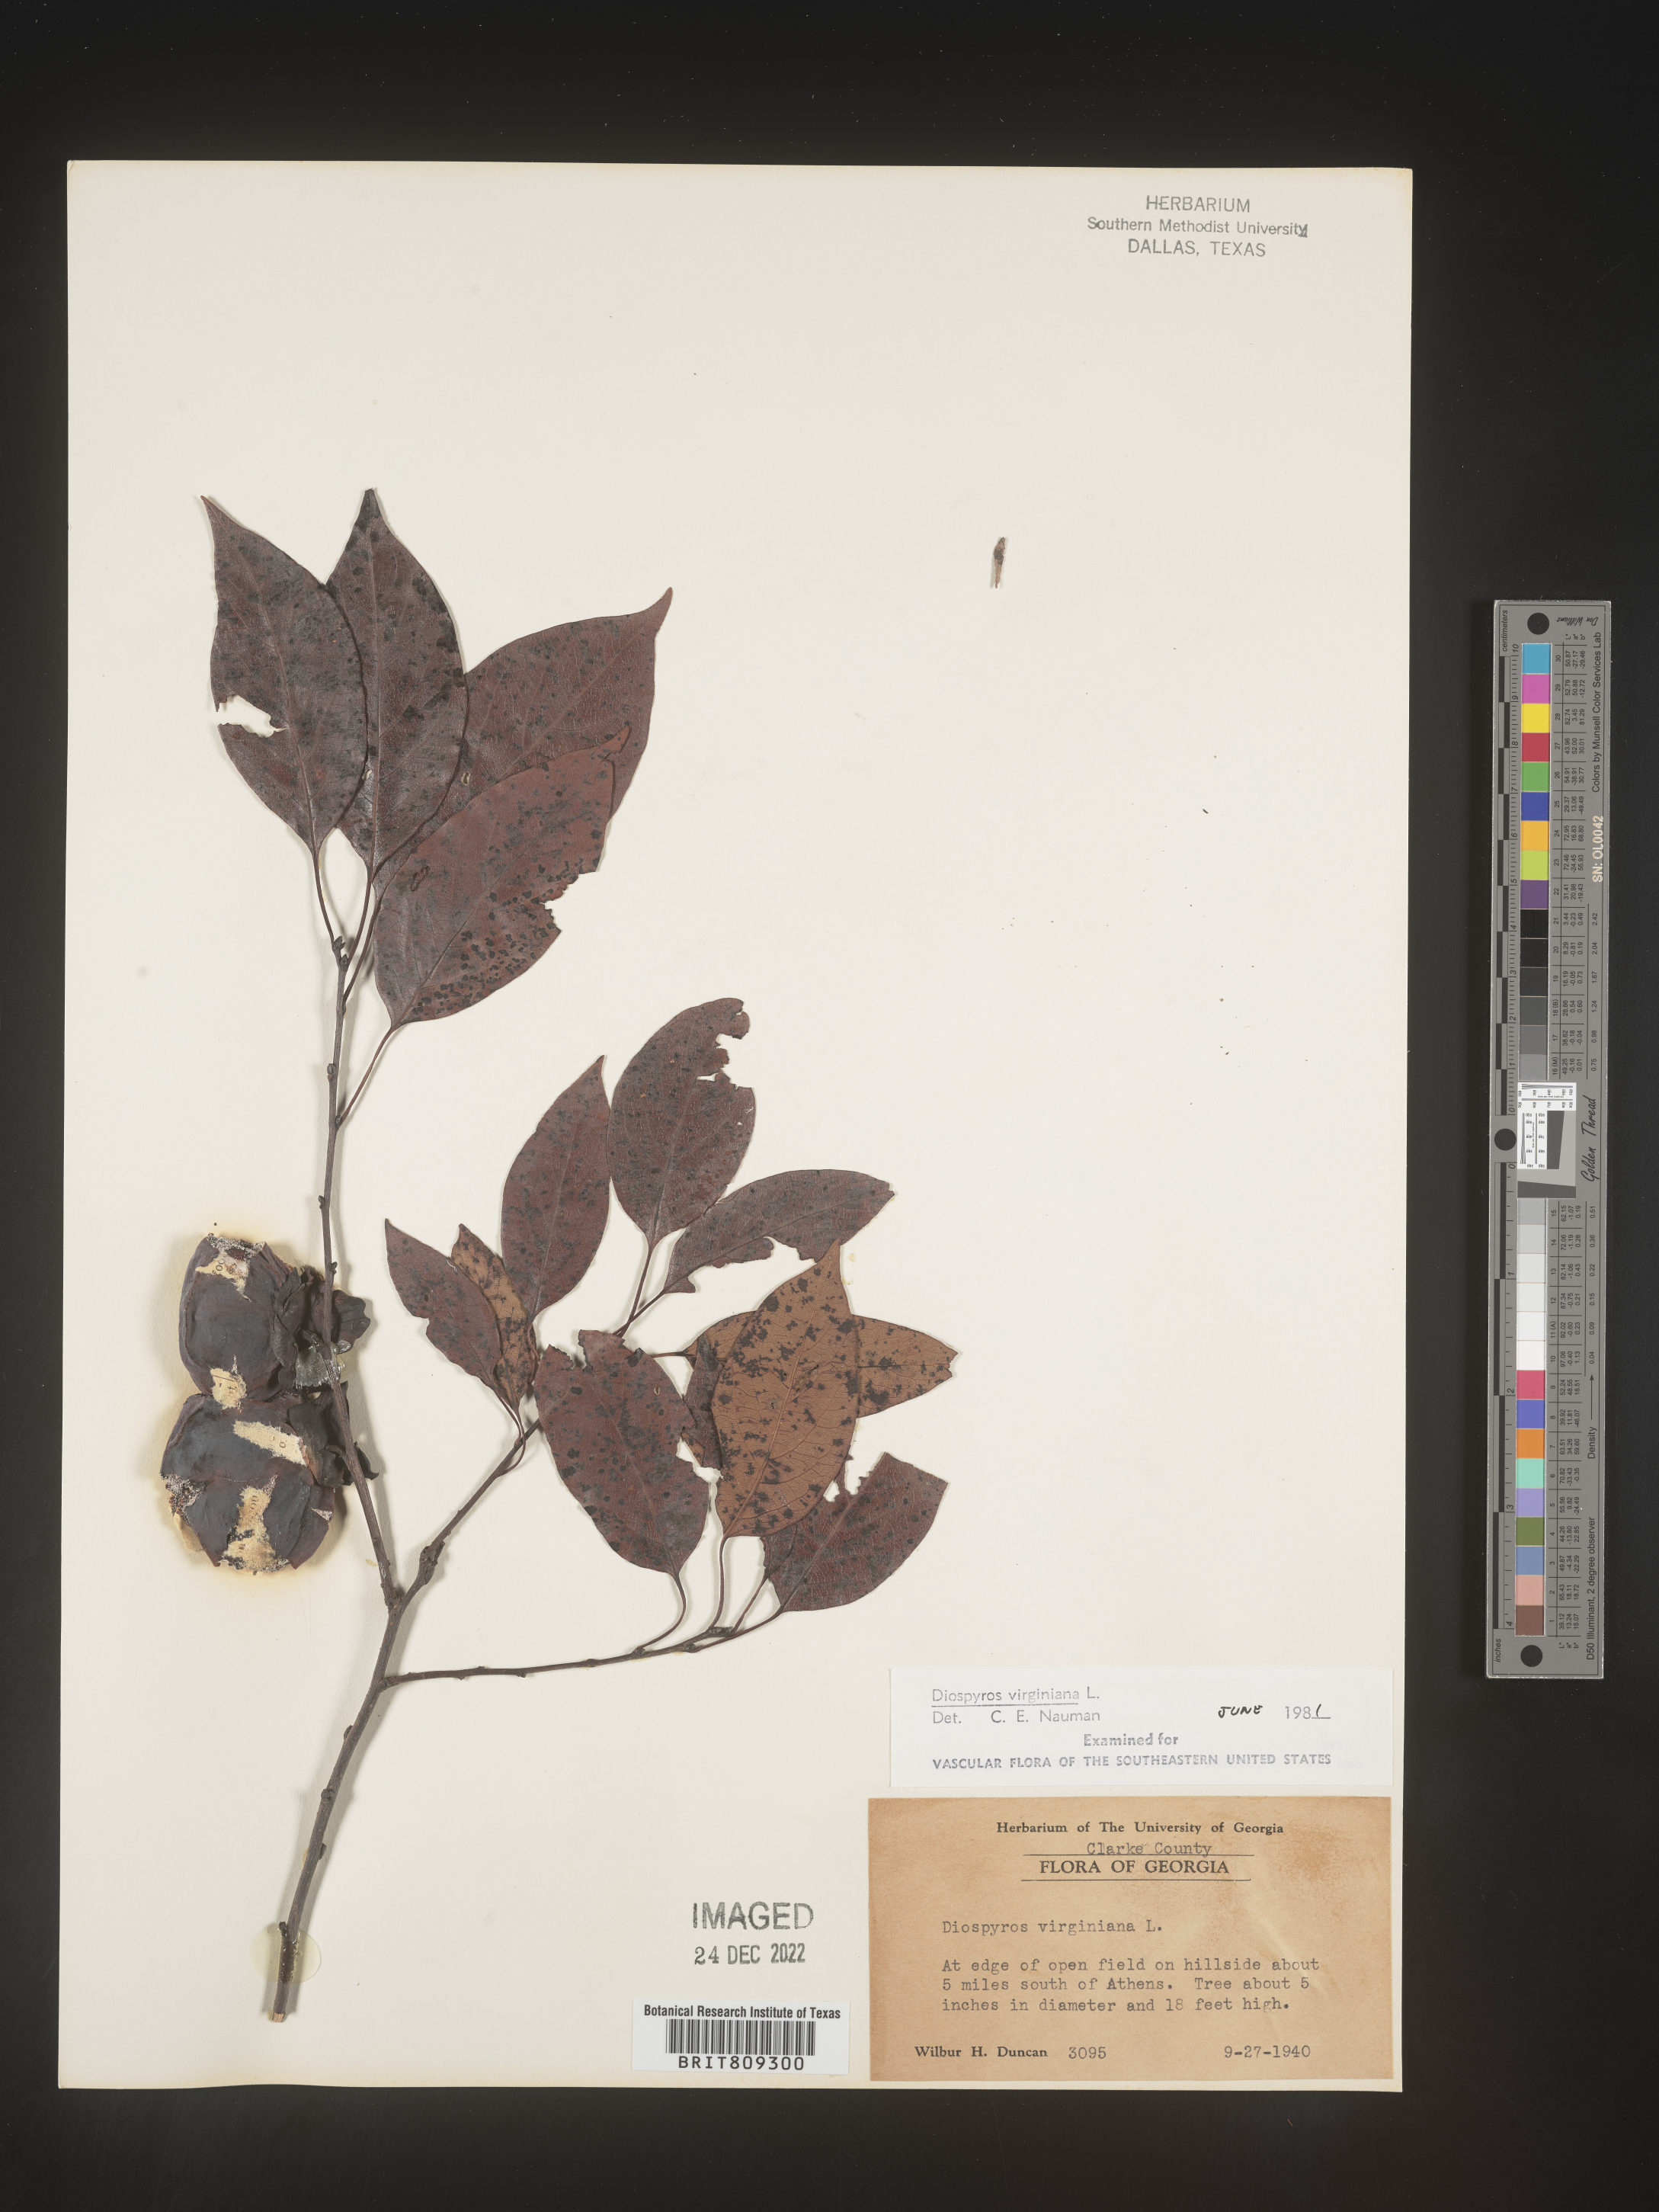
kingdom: Plantae
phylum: Tracheophyta
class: Magnoliopsida
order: Ericales
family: Ebenaceae
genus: Diospyros
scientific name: Diospyros virginiana
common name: Persimmon
